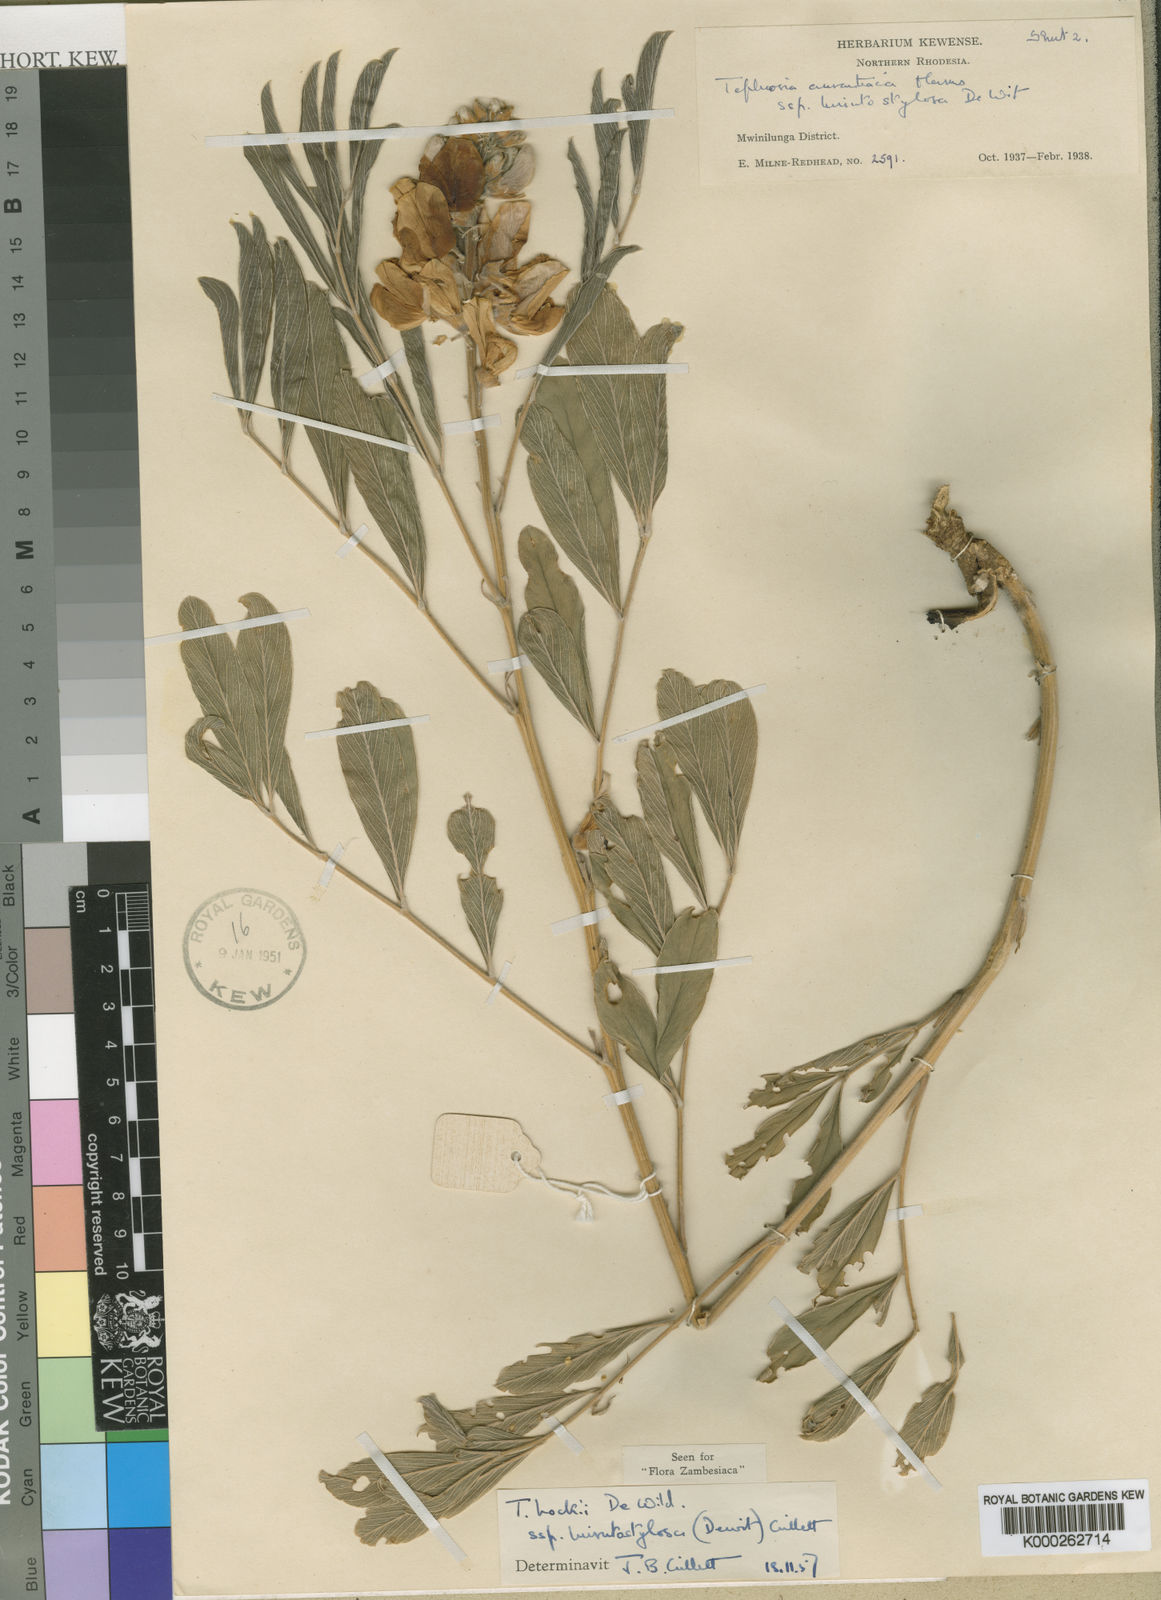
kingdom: Plantae
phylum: Tracheophyta
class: Magnoliopsida
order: Fabales
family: Fabaceae
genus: Tephrosia
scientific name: Tephrosia hockii
